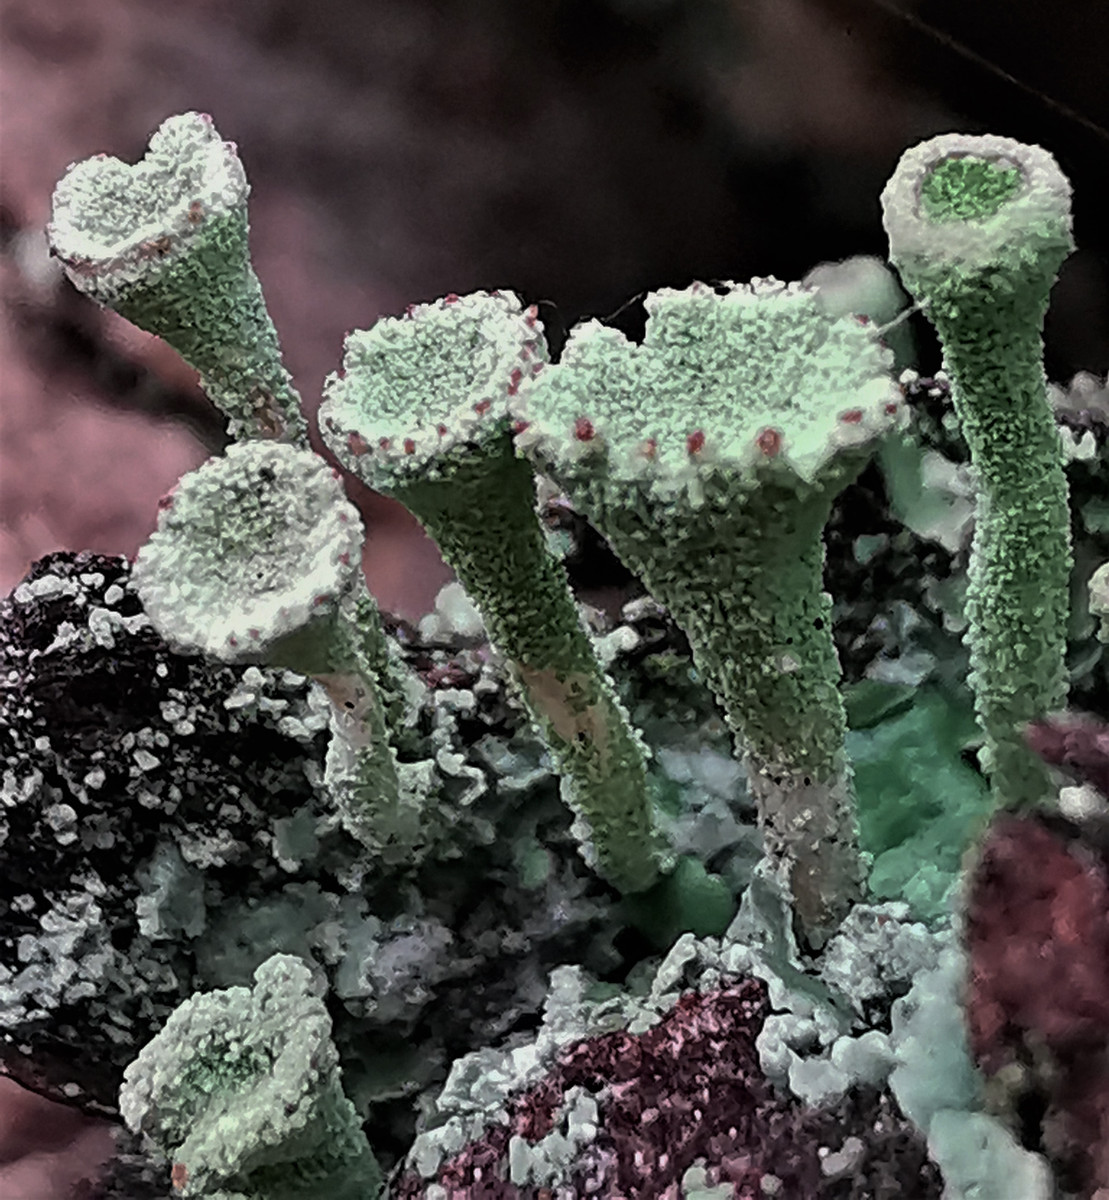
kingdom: Fungi
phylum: Ascomycota
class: Lecanoromycetes
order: Lecanorales
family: Cladoniaceae
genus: Cladonia
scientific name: Cladonia
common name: brungrøn bægerlav
